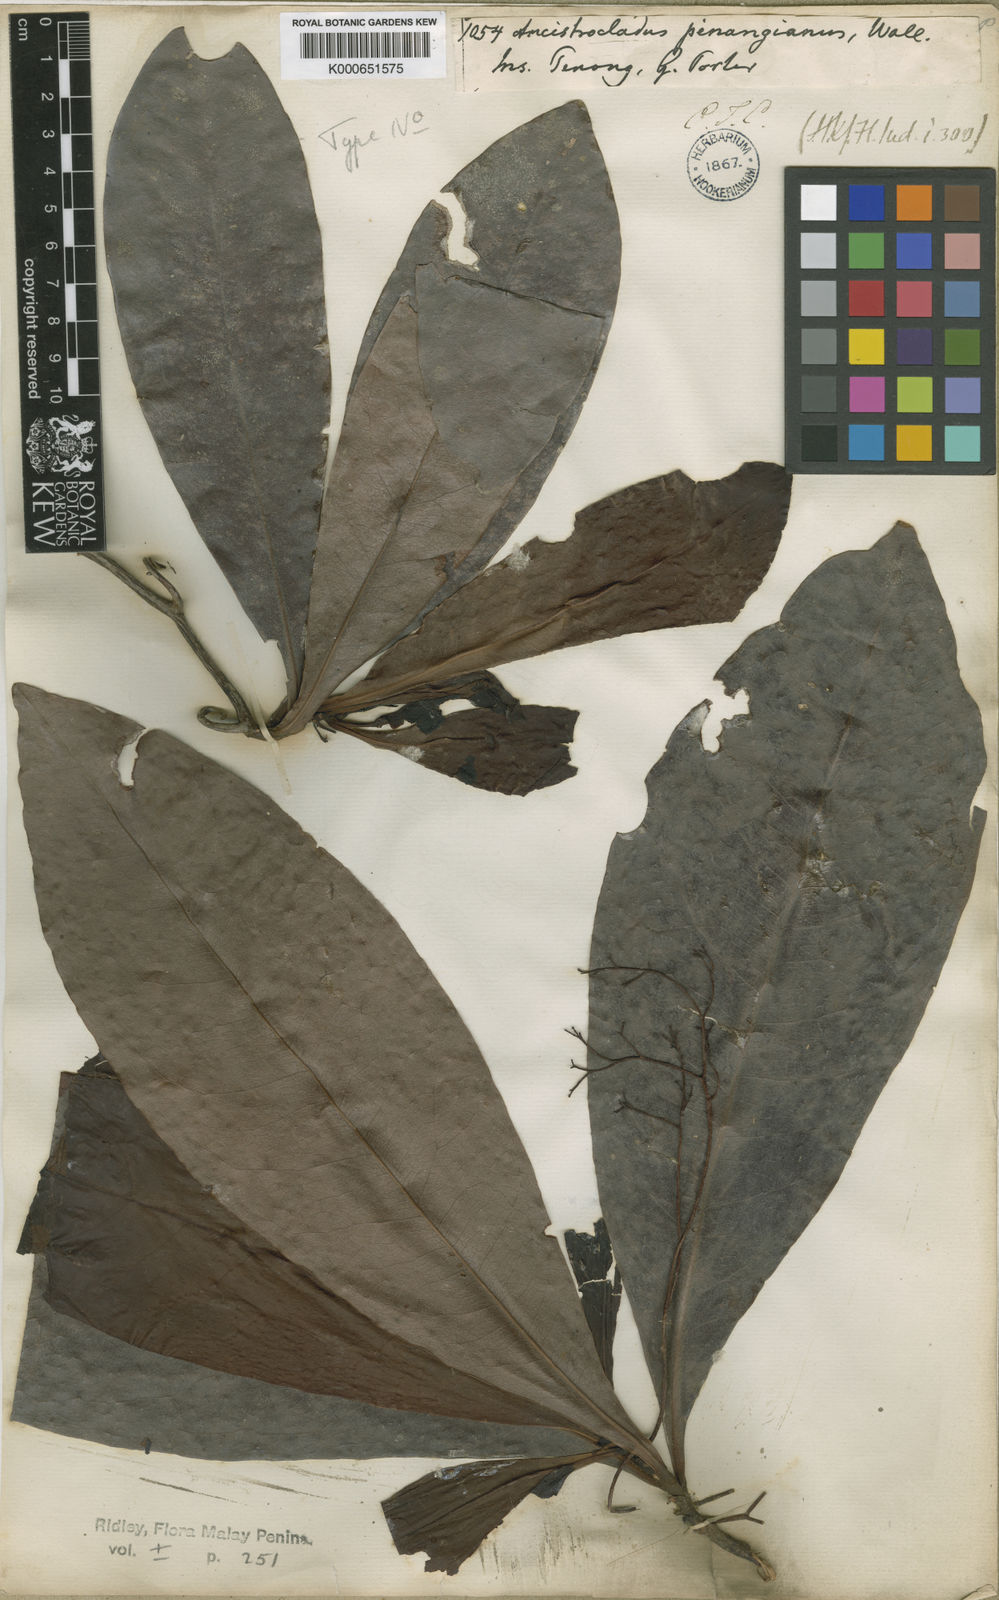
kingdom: Plantae
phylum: Tracheophyta
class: Magnoliopsida
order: Caryophyllales
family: Ancistrocladaceae
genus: Ancistrocladus
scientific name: Ancistrocladus tectorius
